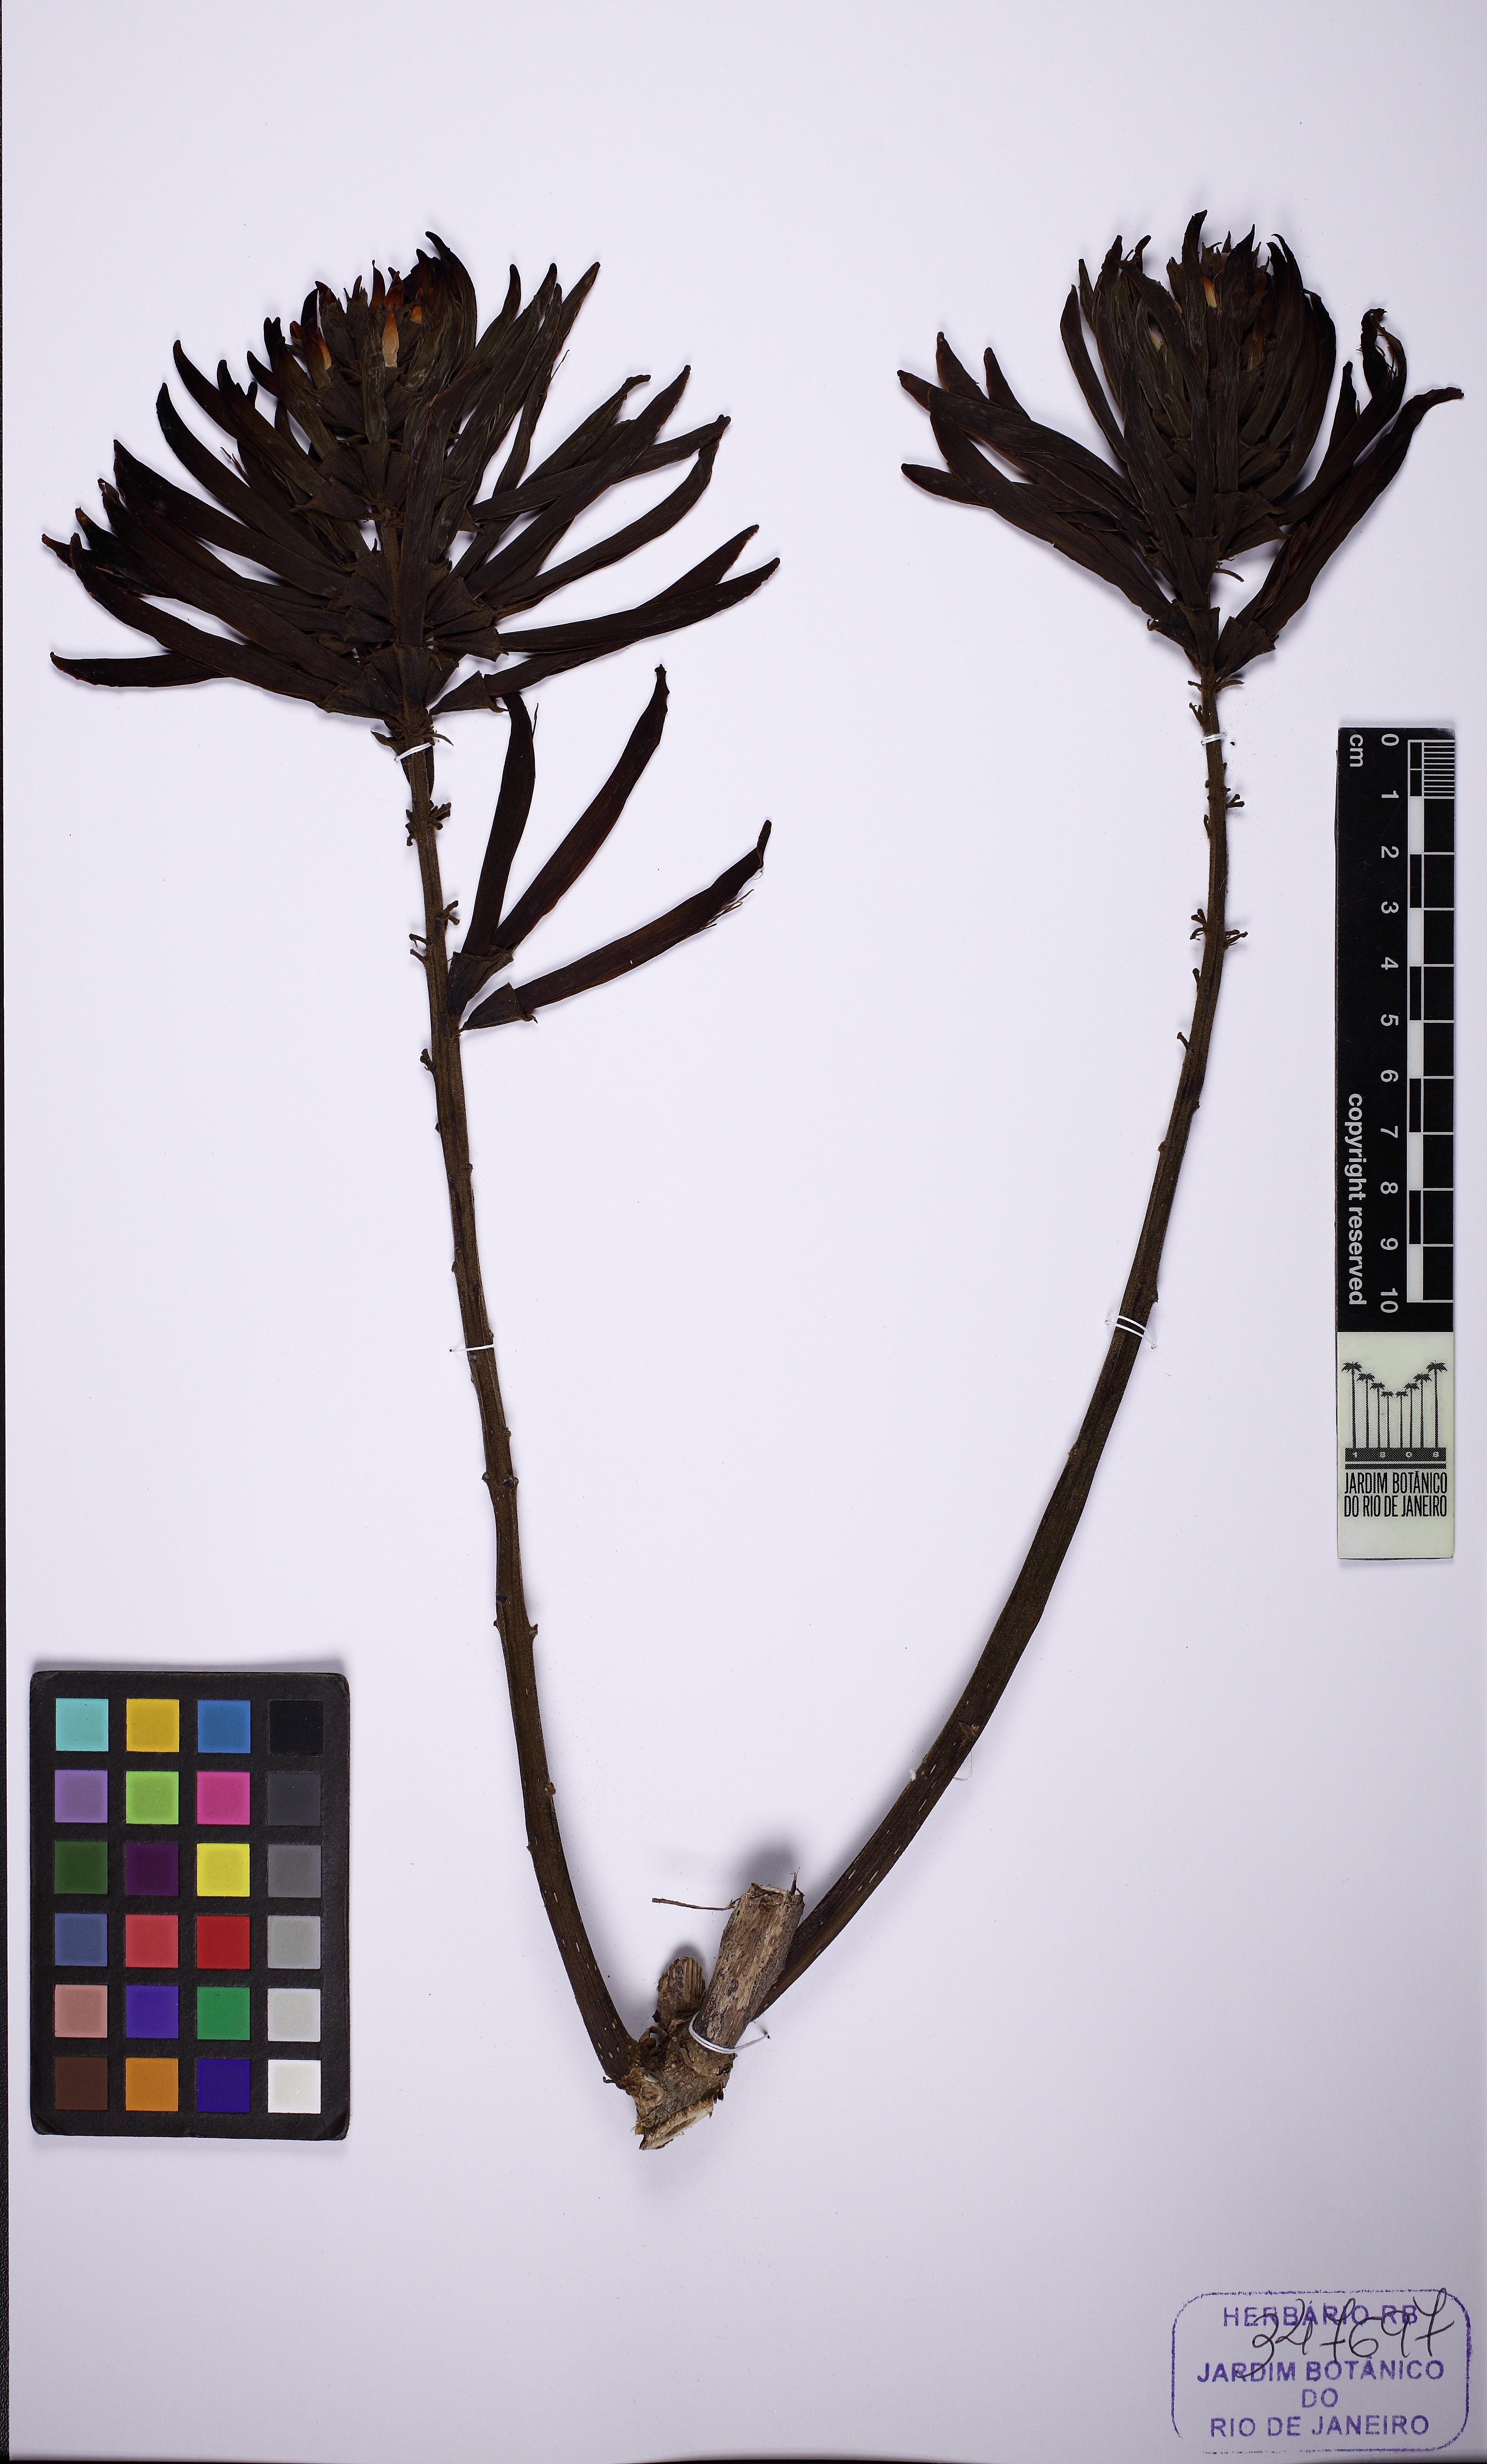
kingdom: Plantae
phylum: Tracheophyta
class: Magnoliopsida
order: Fabales
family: Fabaceae
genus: Erythrina
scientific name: Erythrina speciosa
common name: Coral tree
